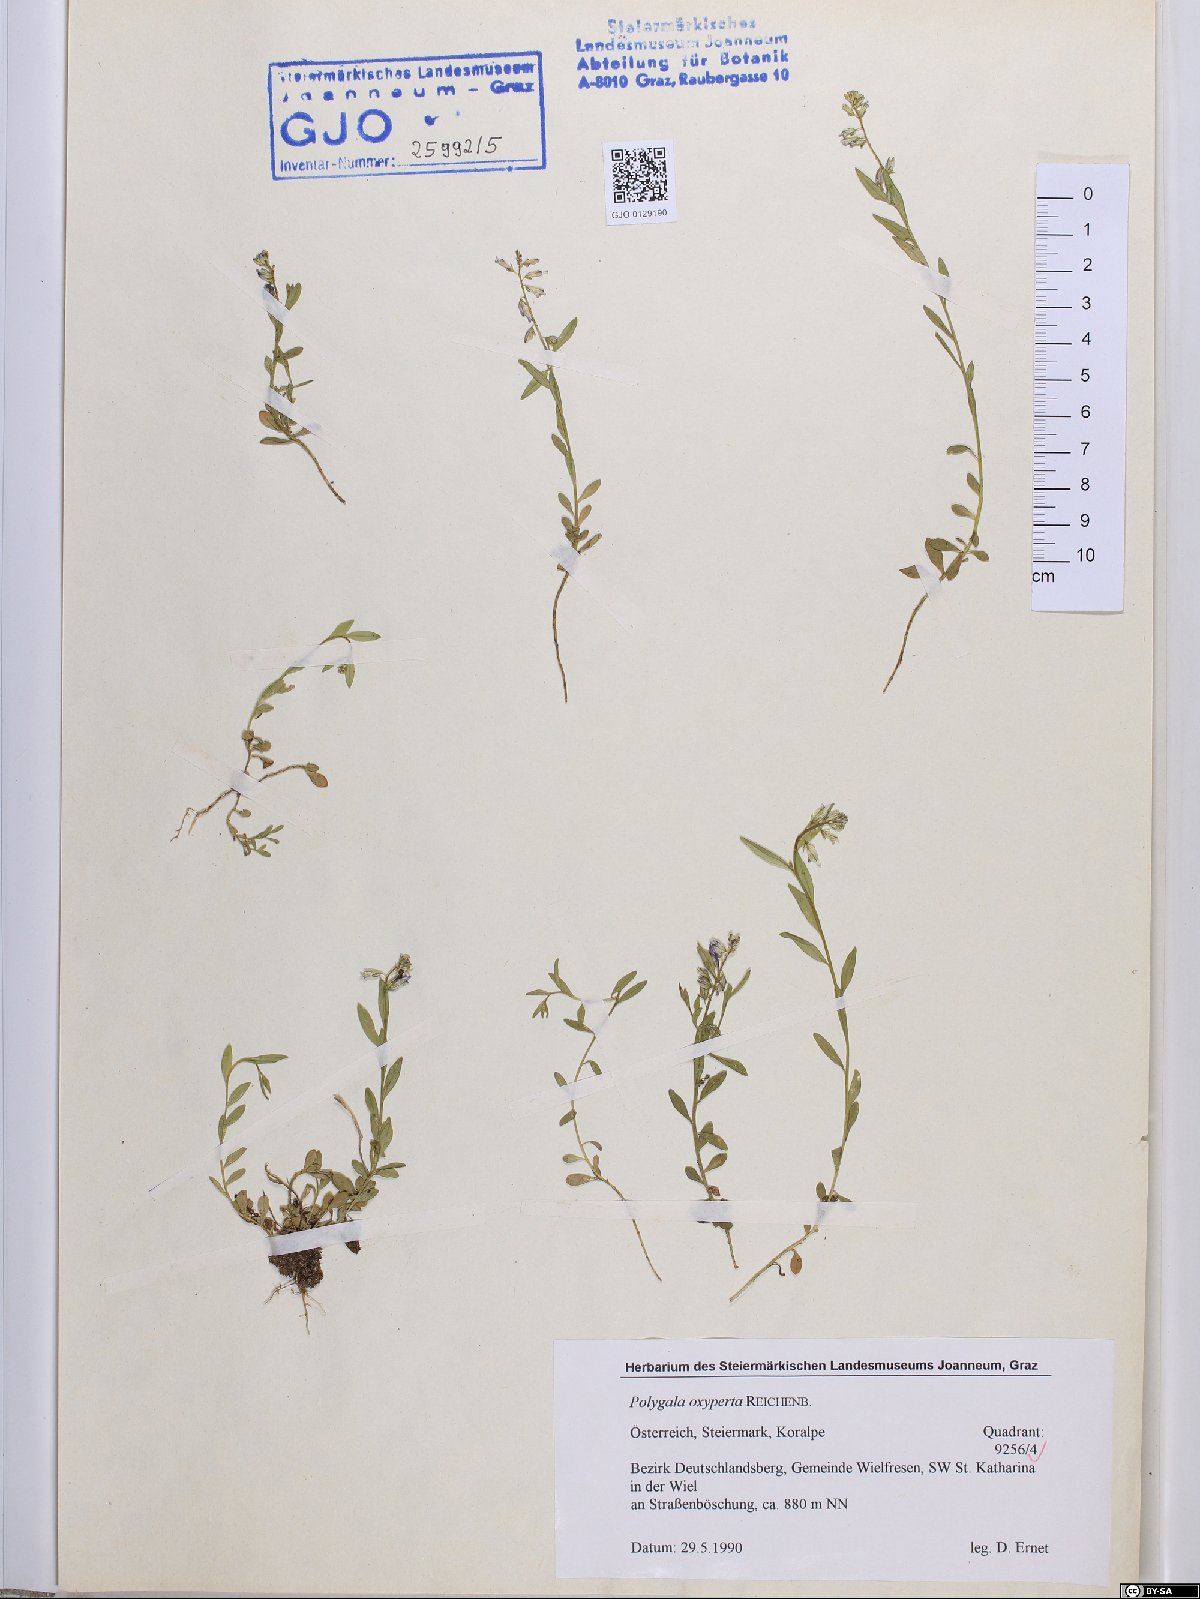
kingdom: Plantae
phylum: Tracheophyta
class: Magnoliopsida
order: Fabales
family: Polygalaceae
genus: Polygala
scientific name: Polygala vulgaris
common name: Common milkwort
